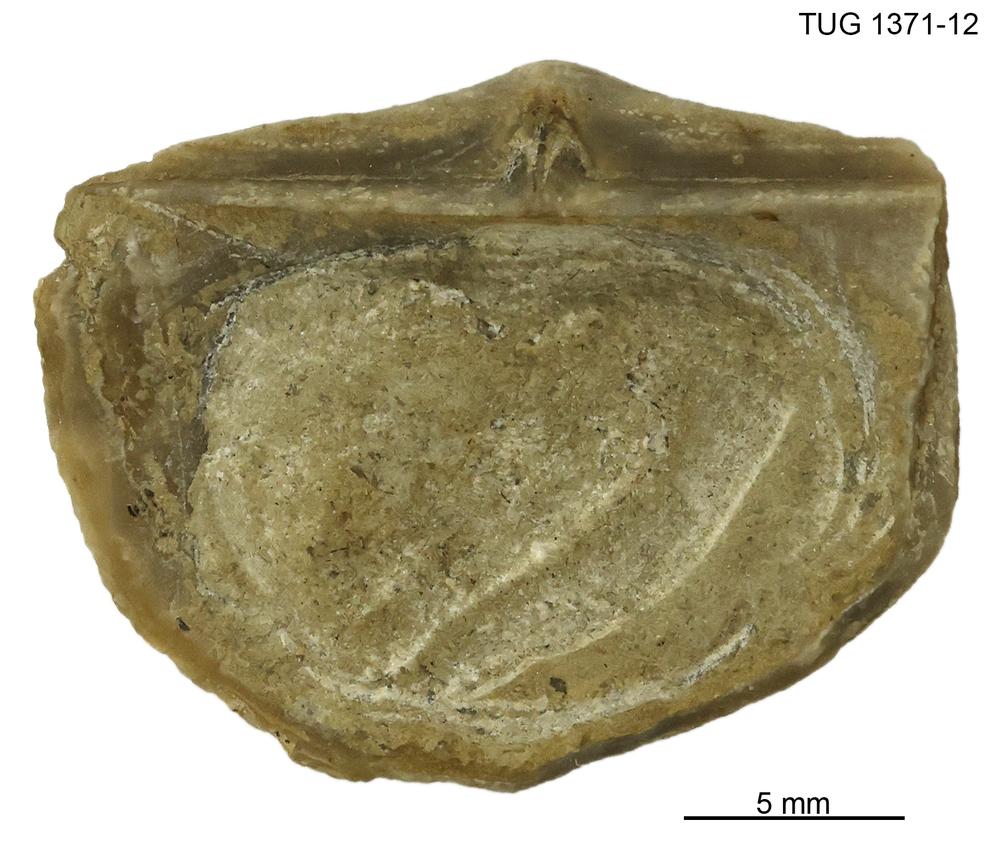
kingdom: Animalia
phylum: Brachiopoda
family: Sowerbyellidae
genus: Eochonetes
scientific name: Eochonetes
